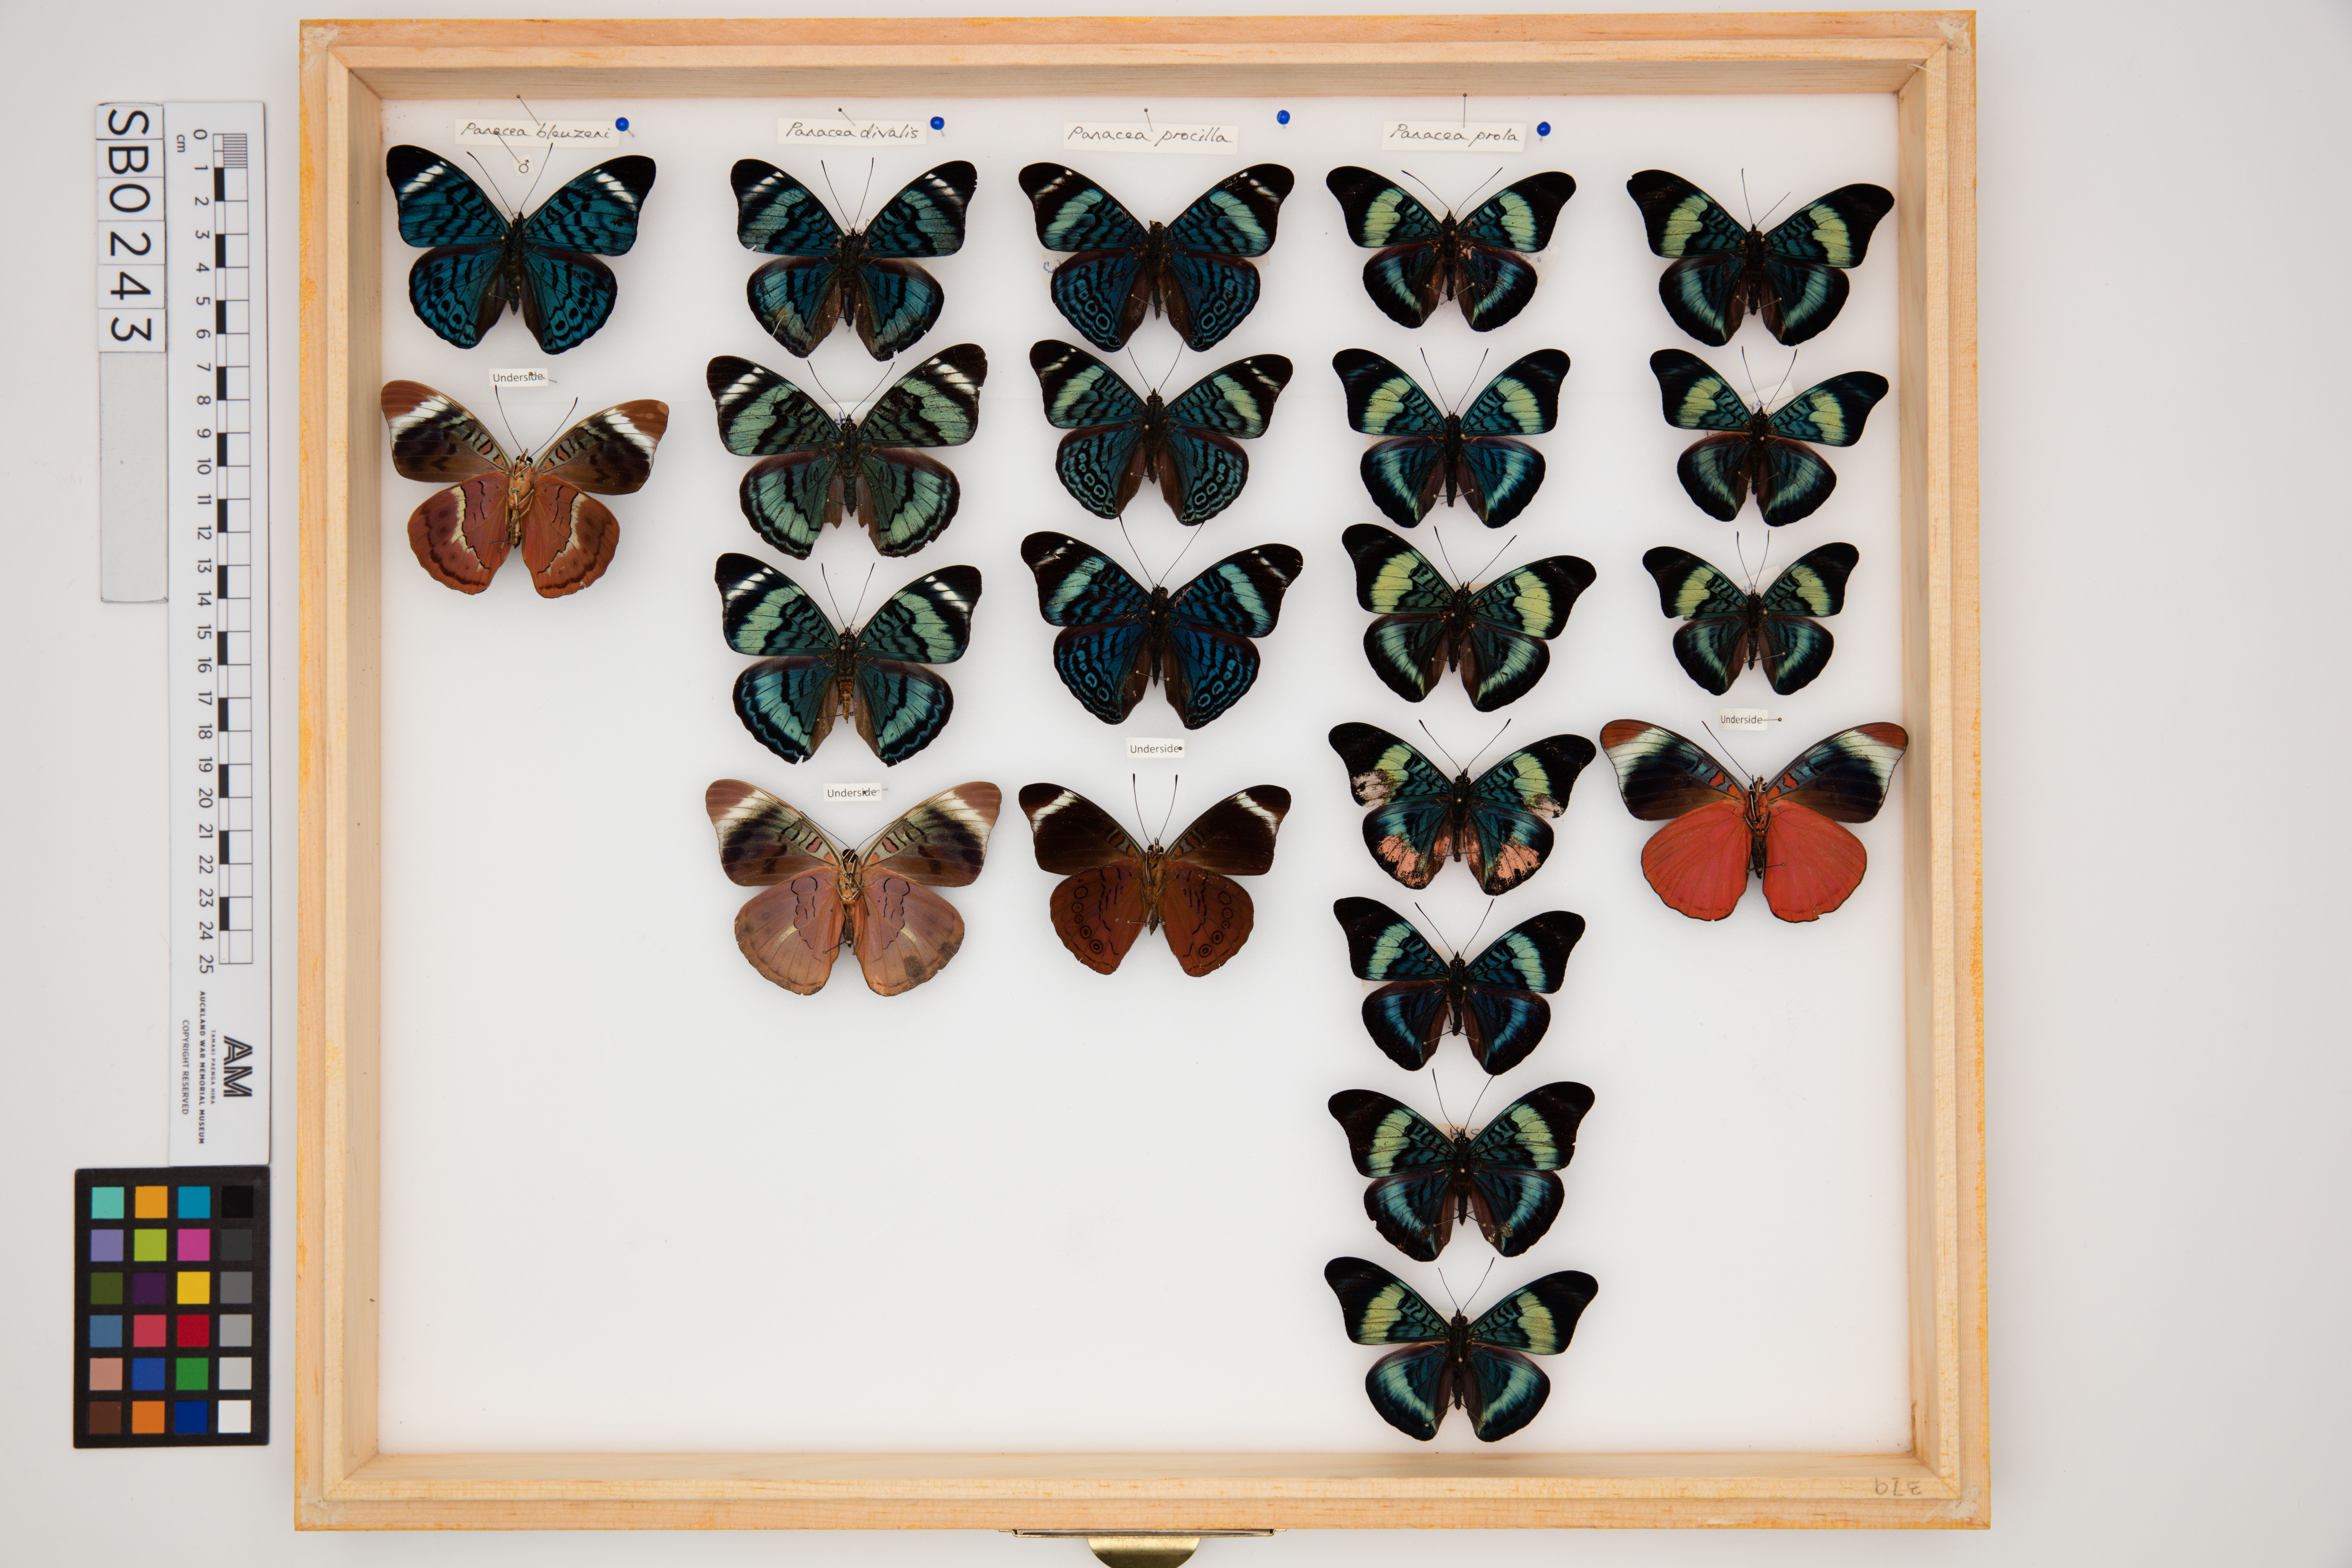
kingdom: Animalia
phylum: Arthropoda
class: Insecta
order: Lepidoptera
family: Nymphalidae
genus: Panacea
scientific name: Panacea
